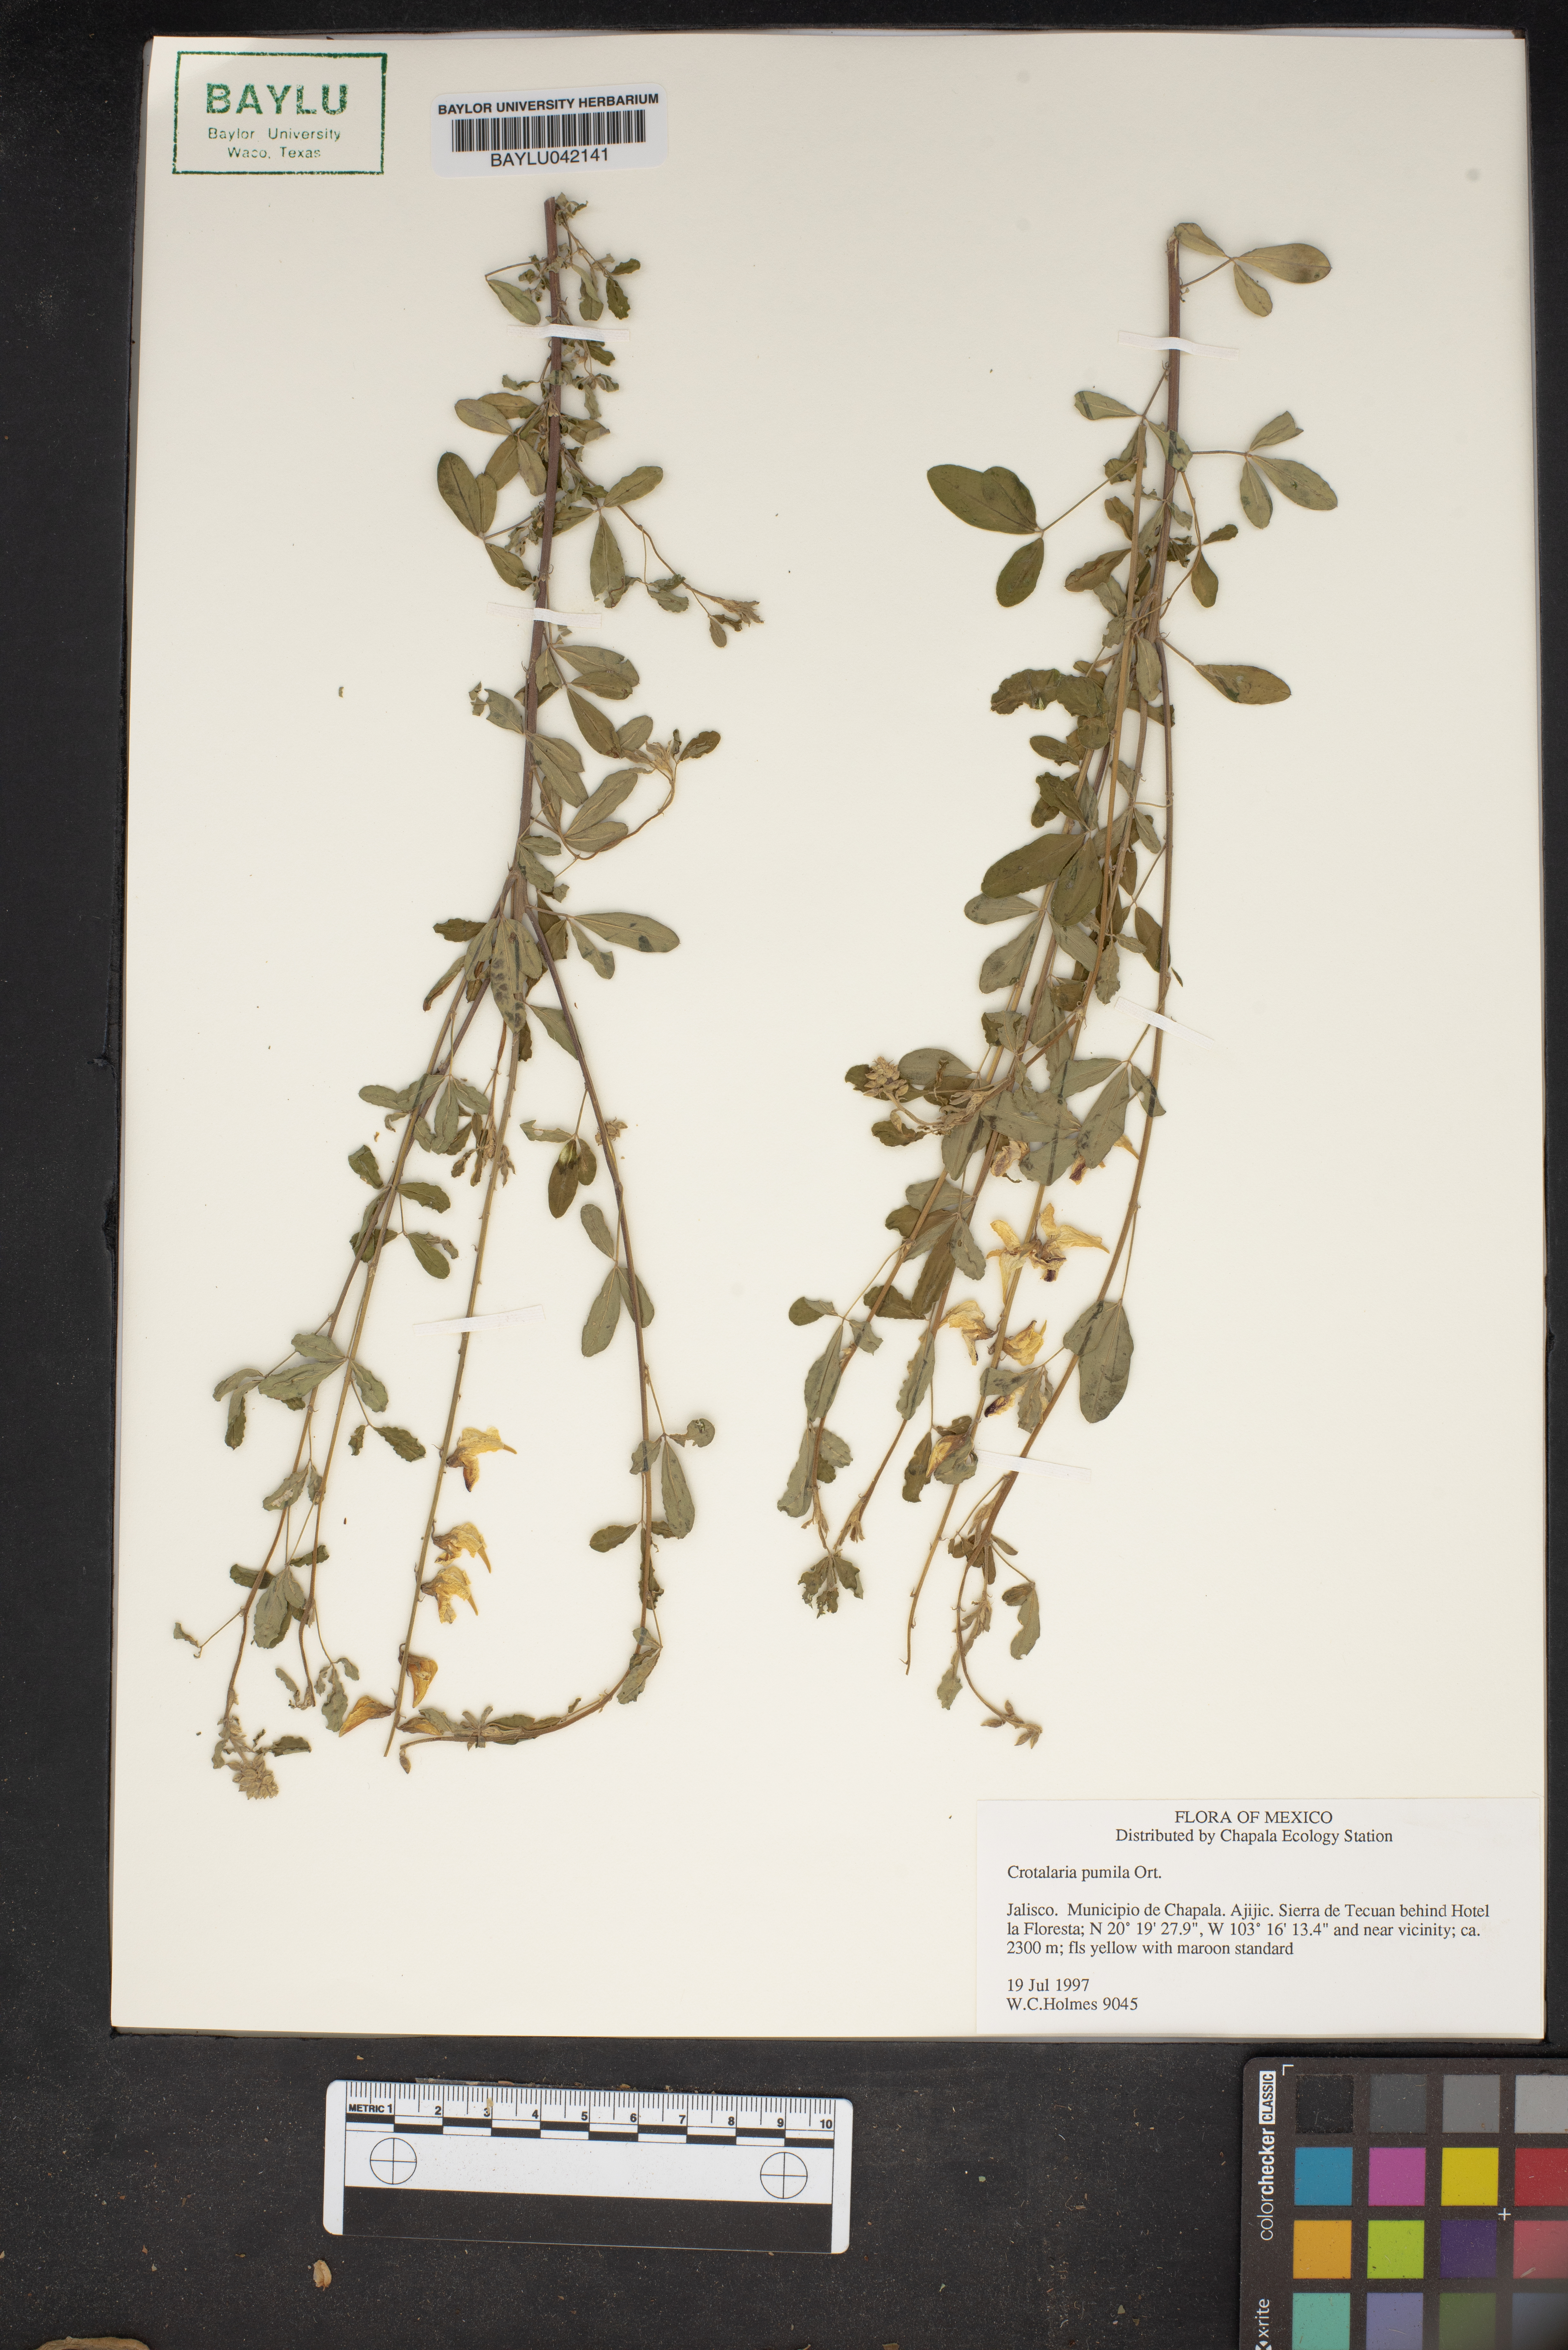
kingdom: Plantae
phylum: Tracheophyta
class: Magnoliopsida
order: Fabales
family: Fabaceae
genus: Crotalaria
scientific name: Crotalaria pumila
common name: Low rattlebox
